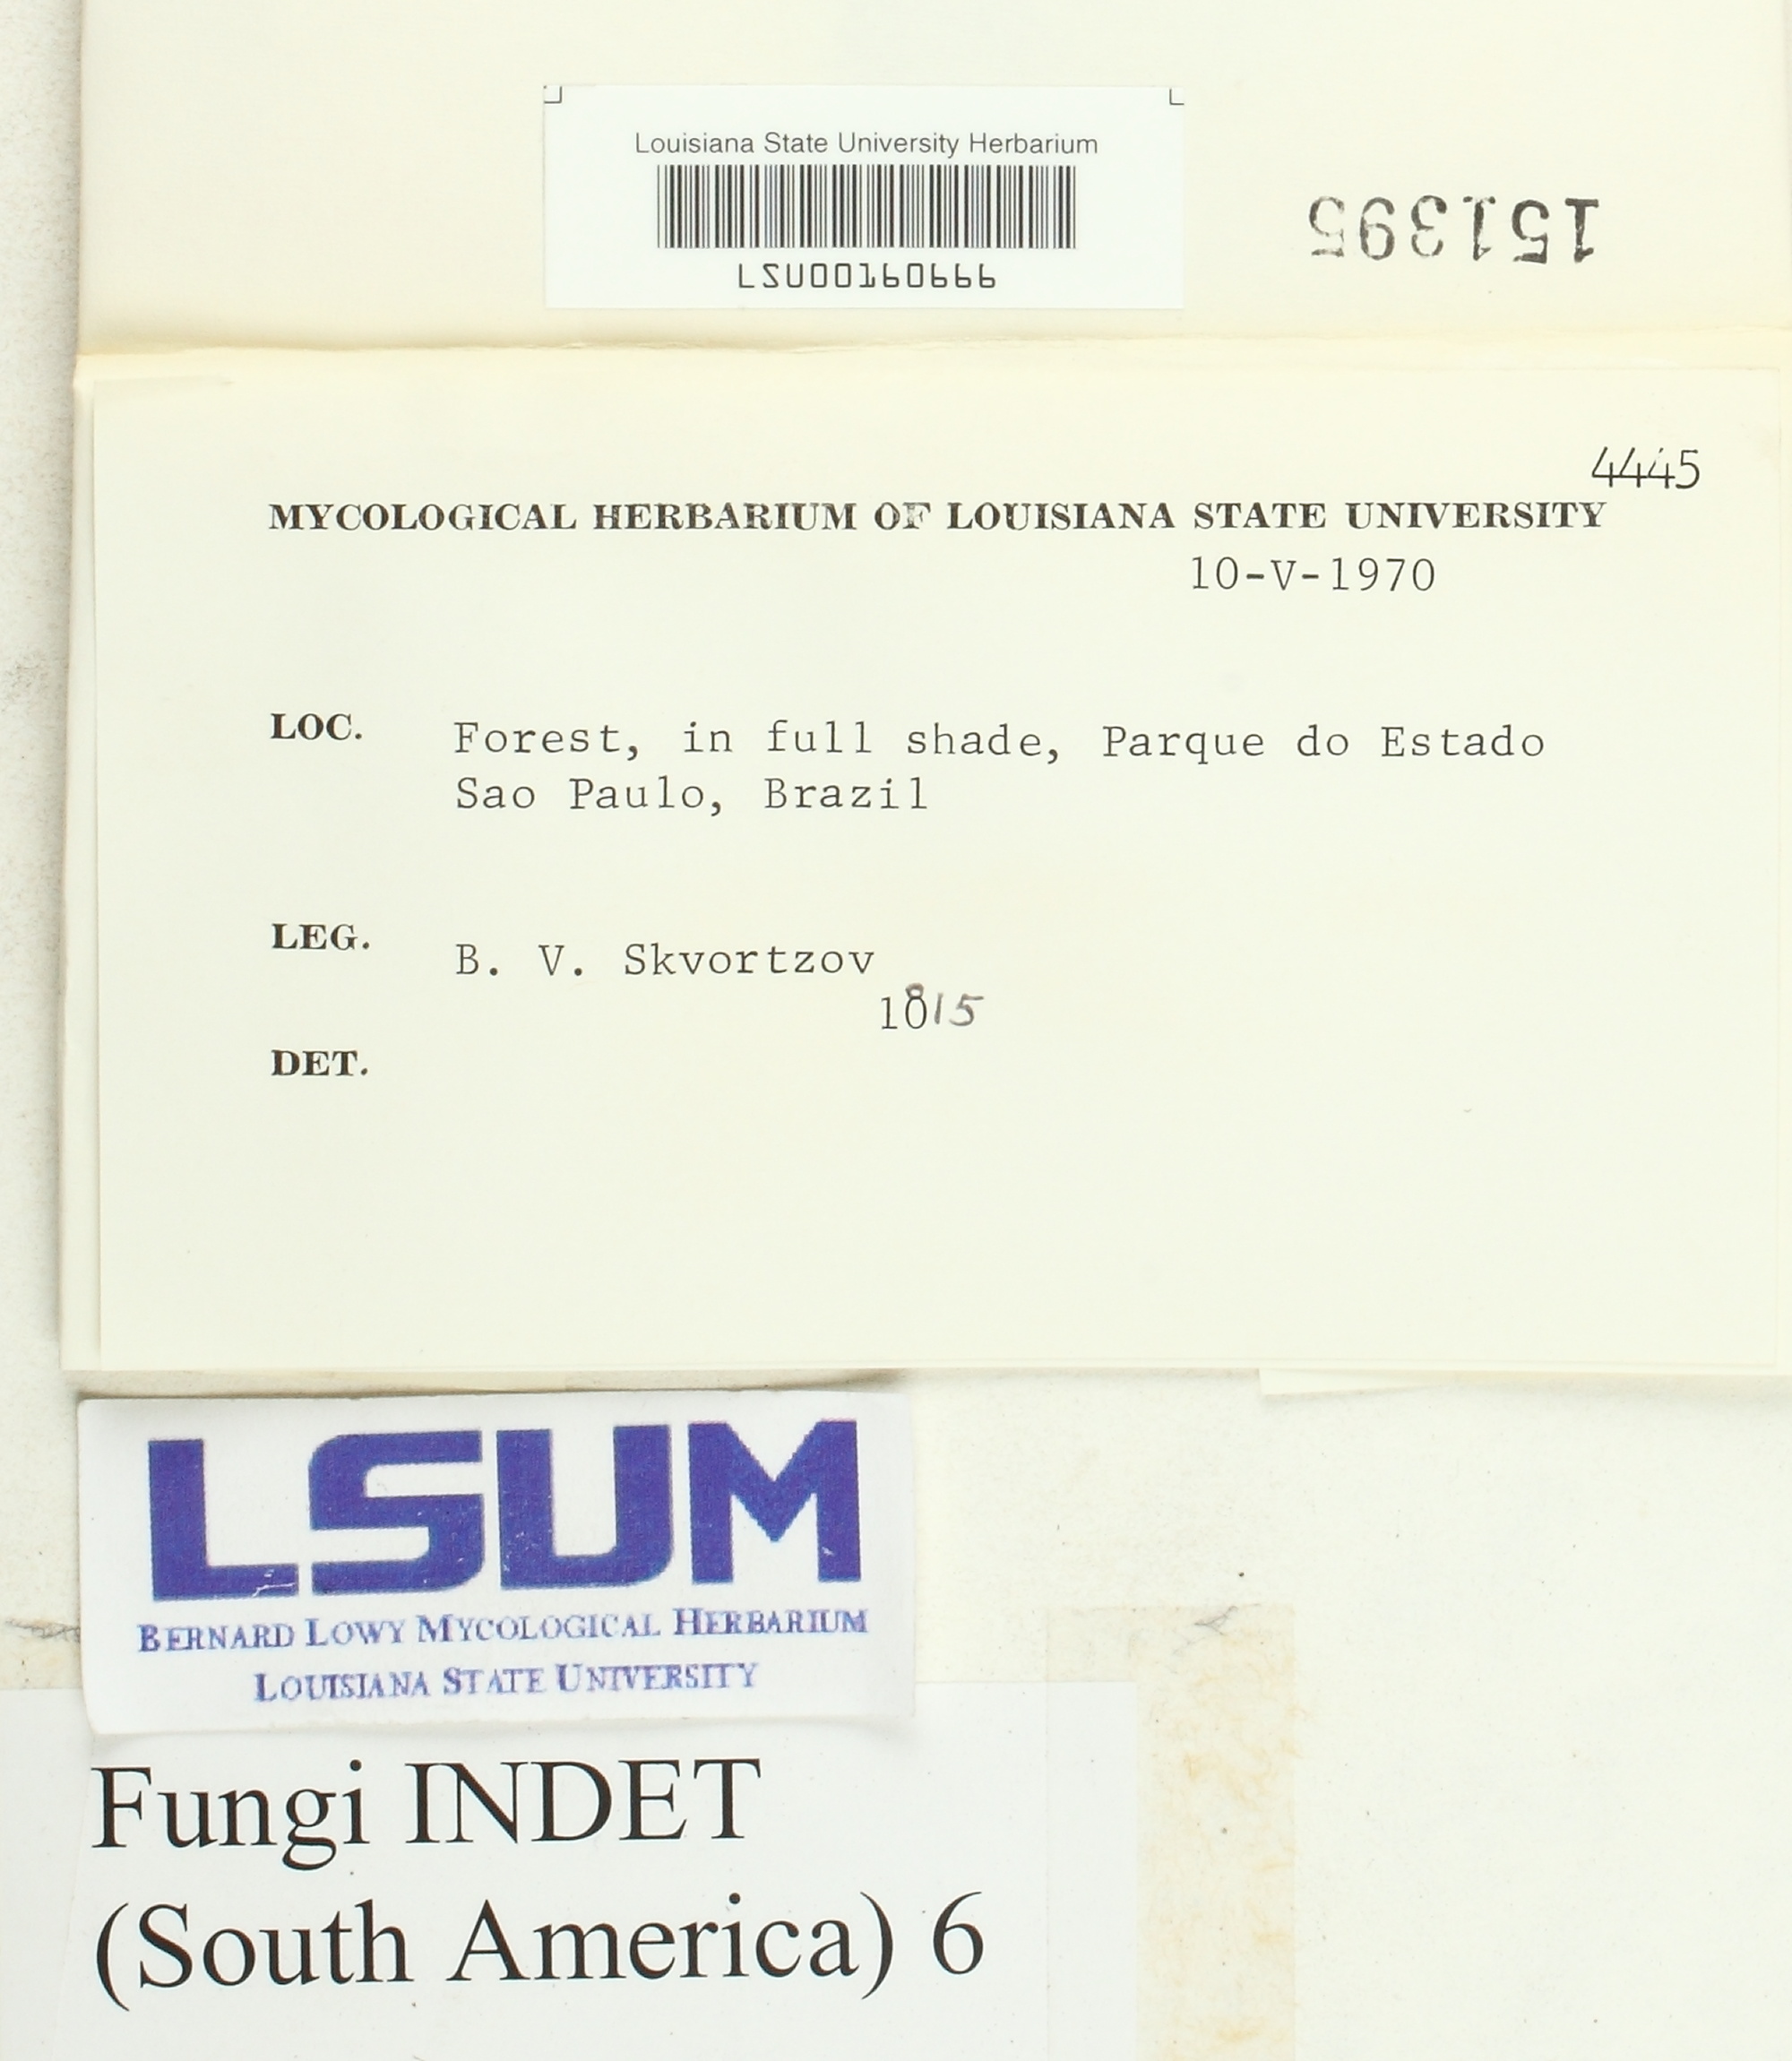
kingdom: Fungi
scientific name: Fungi
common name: Fungi
